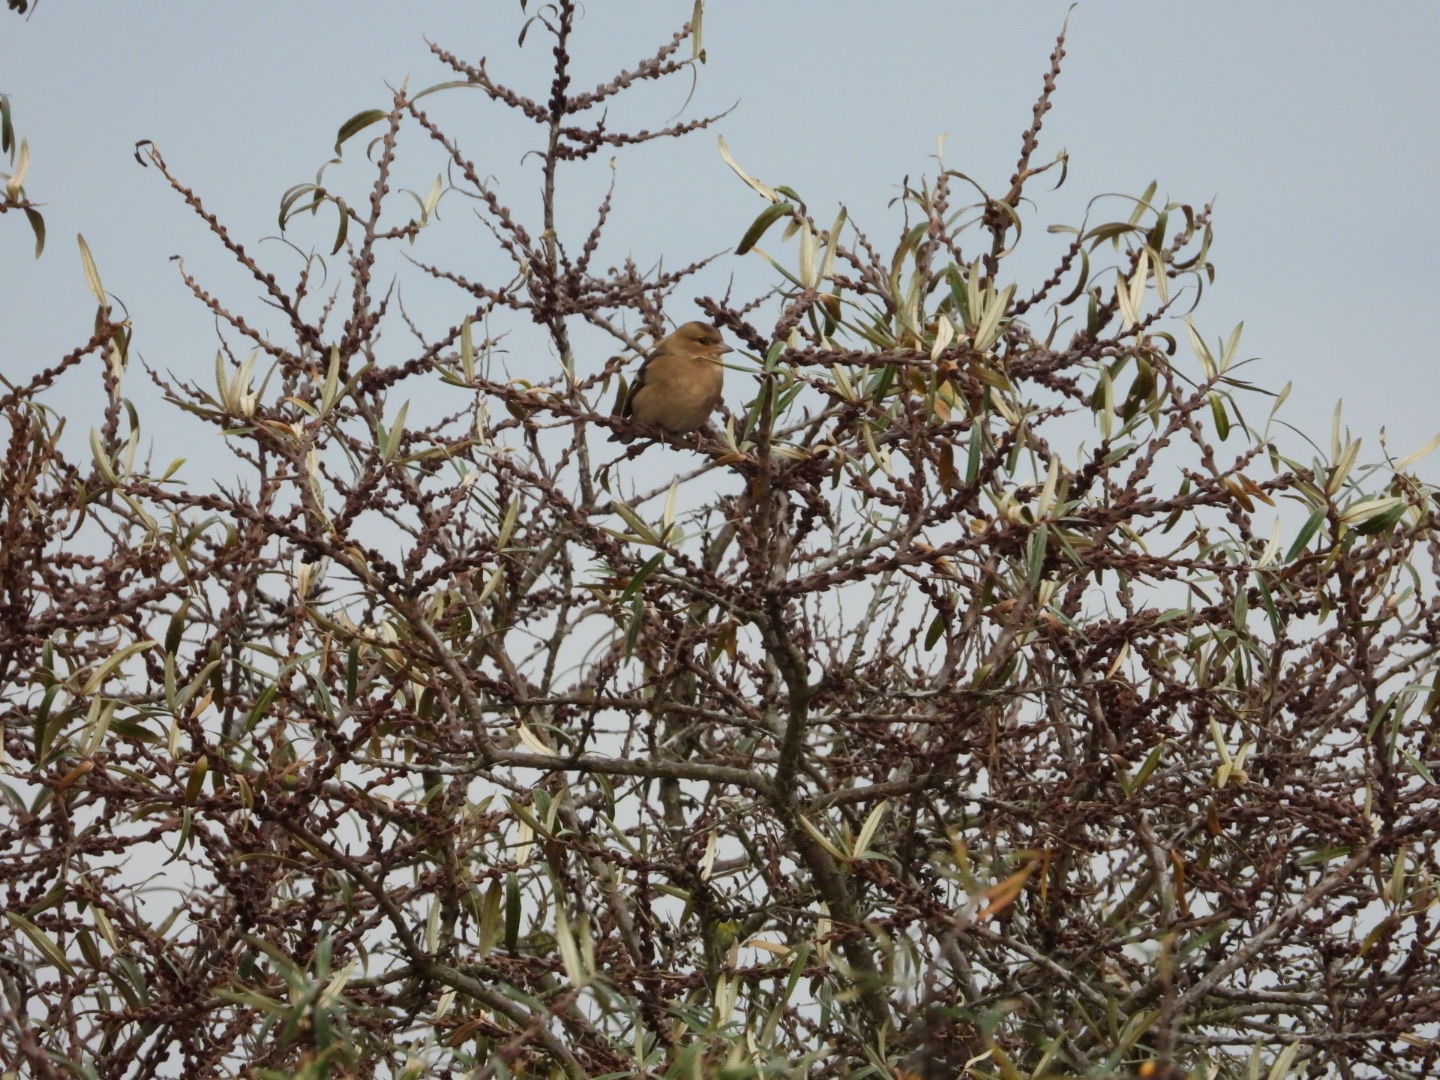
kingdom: Animalia
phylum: Chordata
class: Aves
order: Passeriformes
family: Fringillidae
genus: Fringilla
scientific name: Fringilla coelebs
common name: Bogfinke
